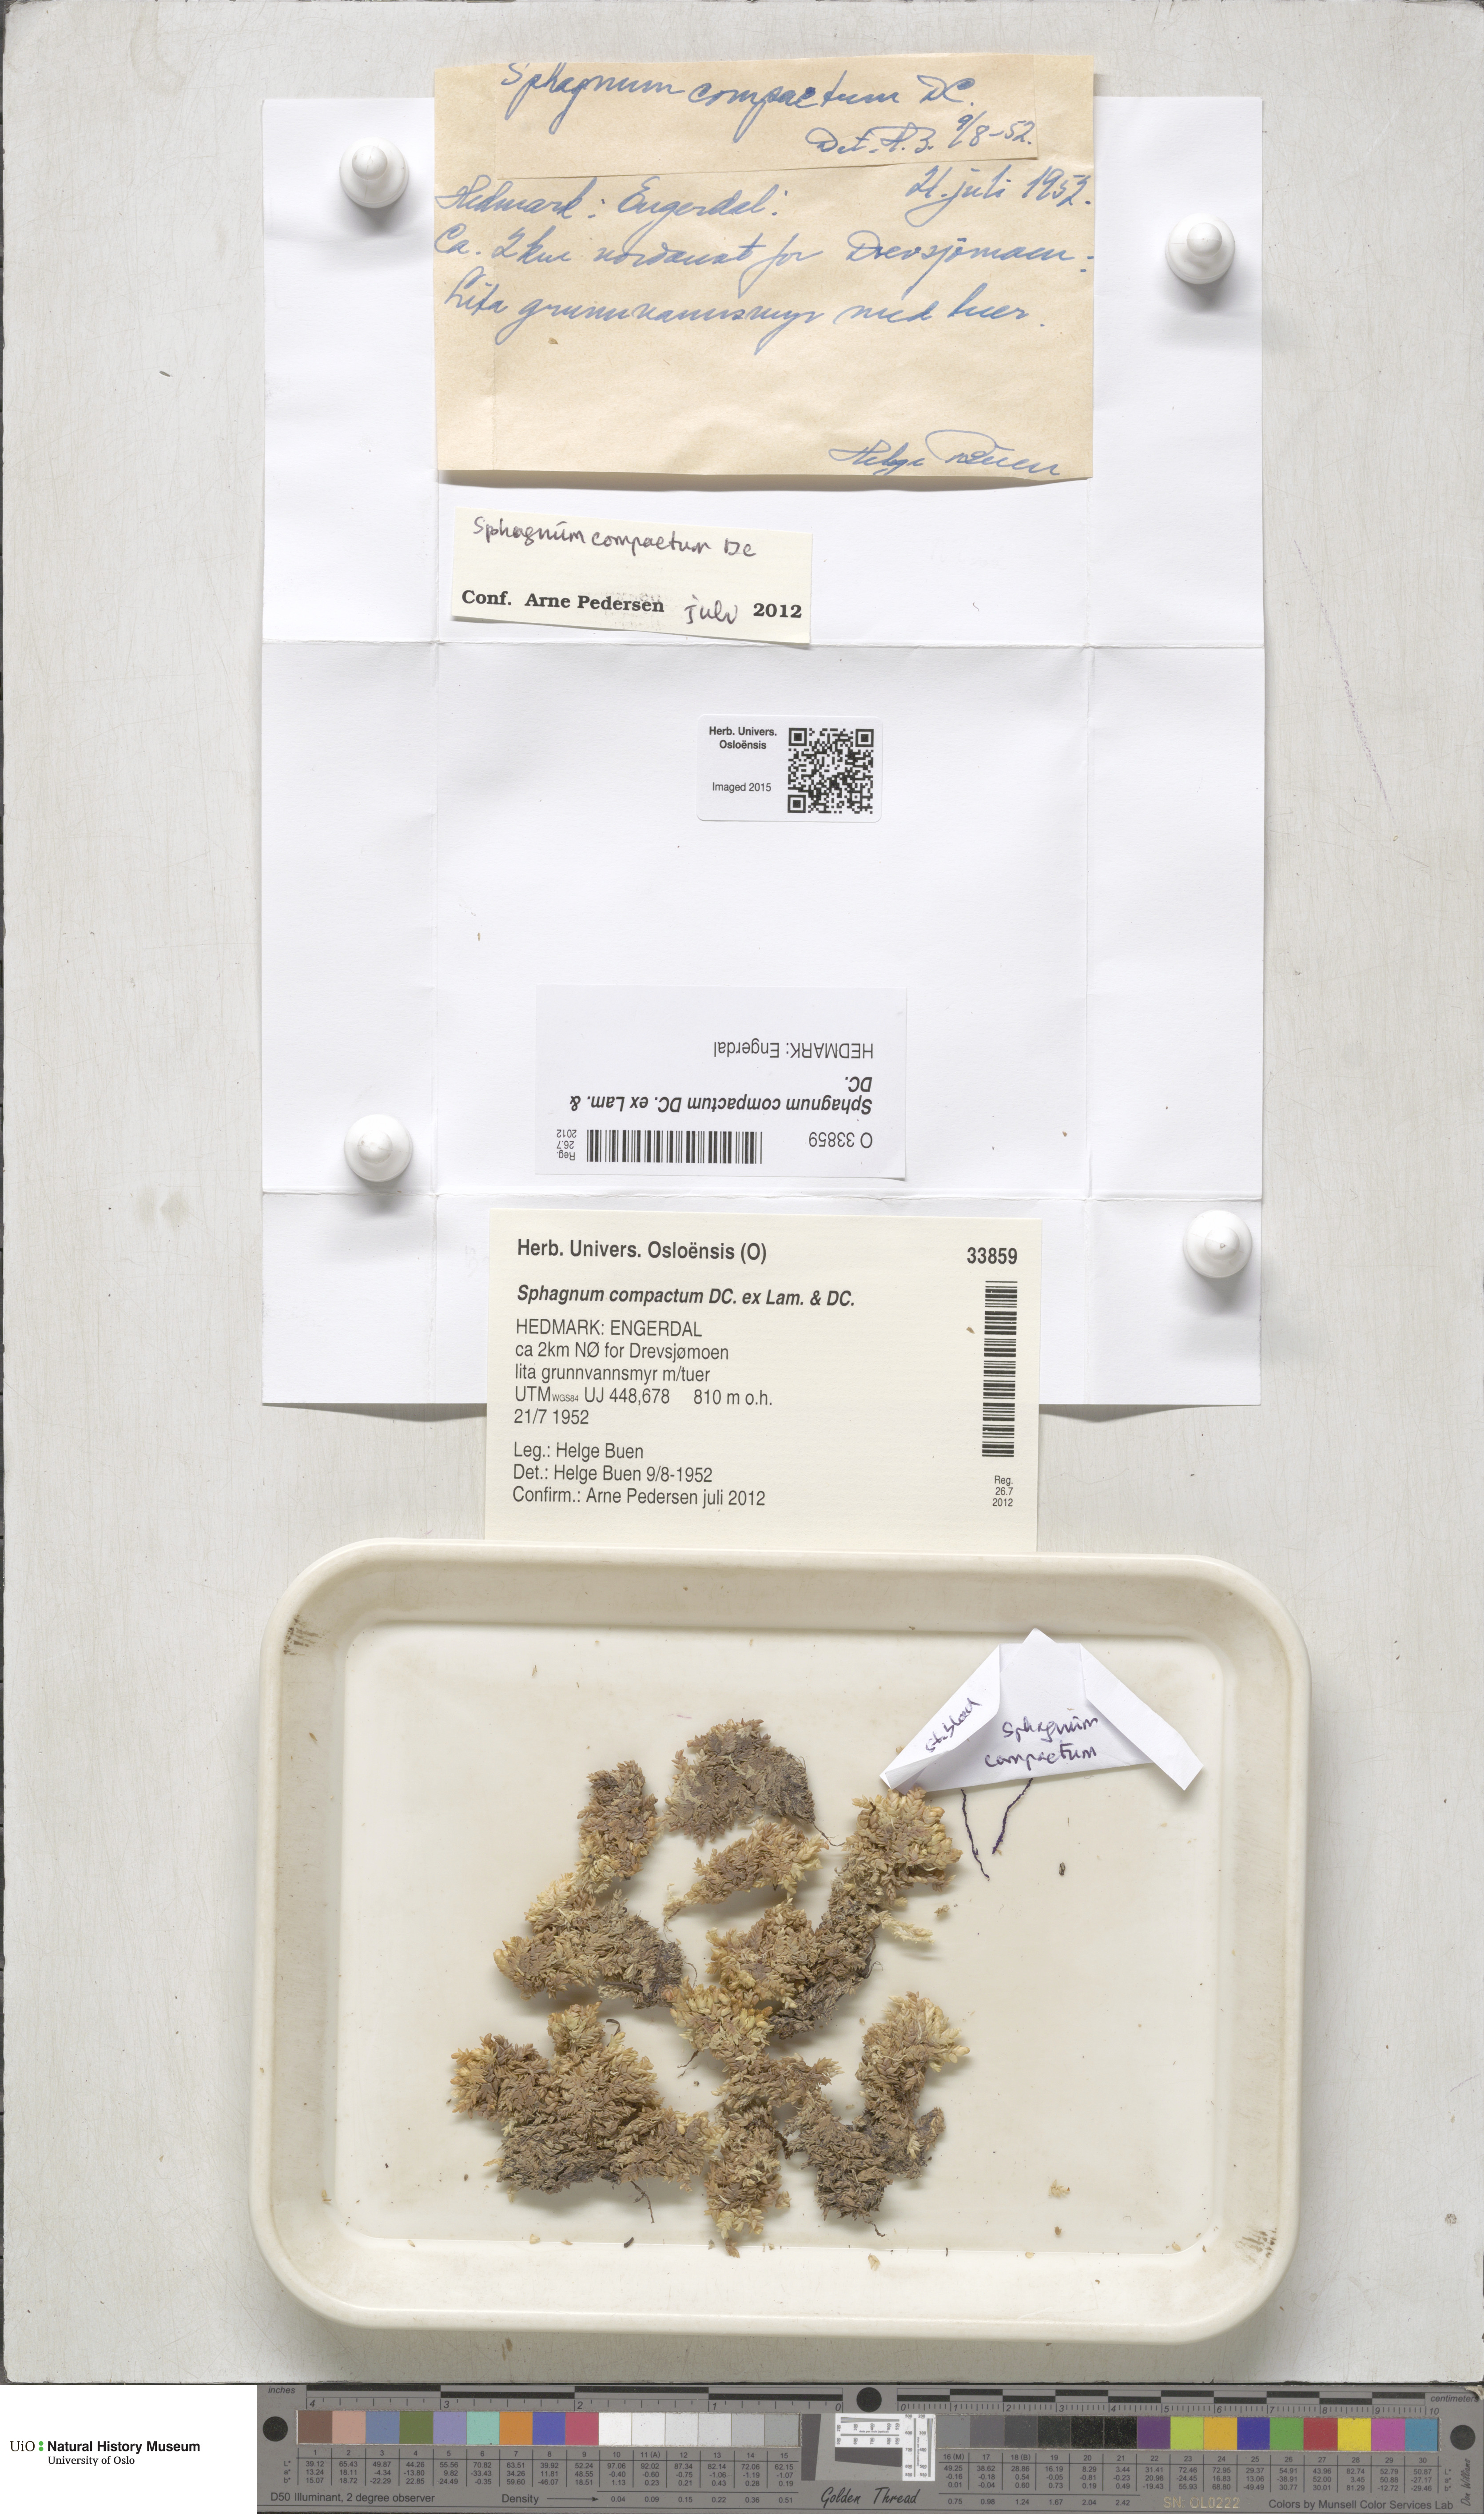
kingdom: Plantae
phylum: Bryophyta
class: Sphagnopsida
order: Sphagnales
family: Sphagnaceae
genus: Sphagnum
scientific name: Sphagnum compactum
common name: Compact peat moss
